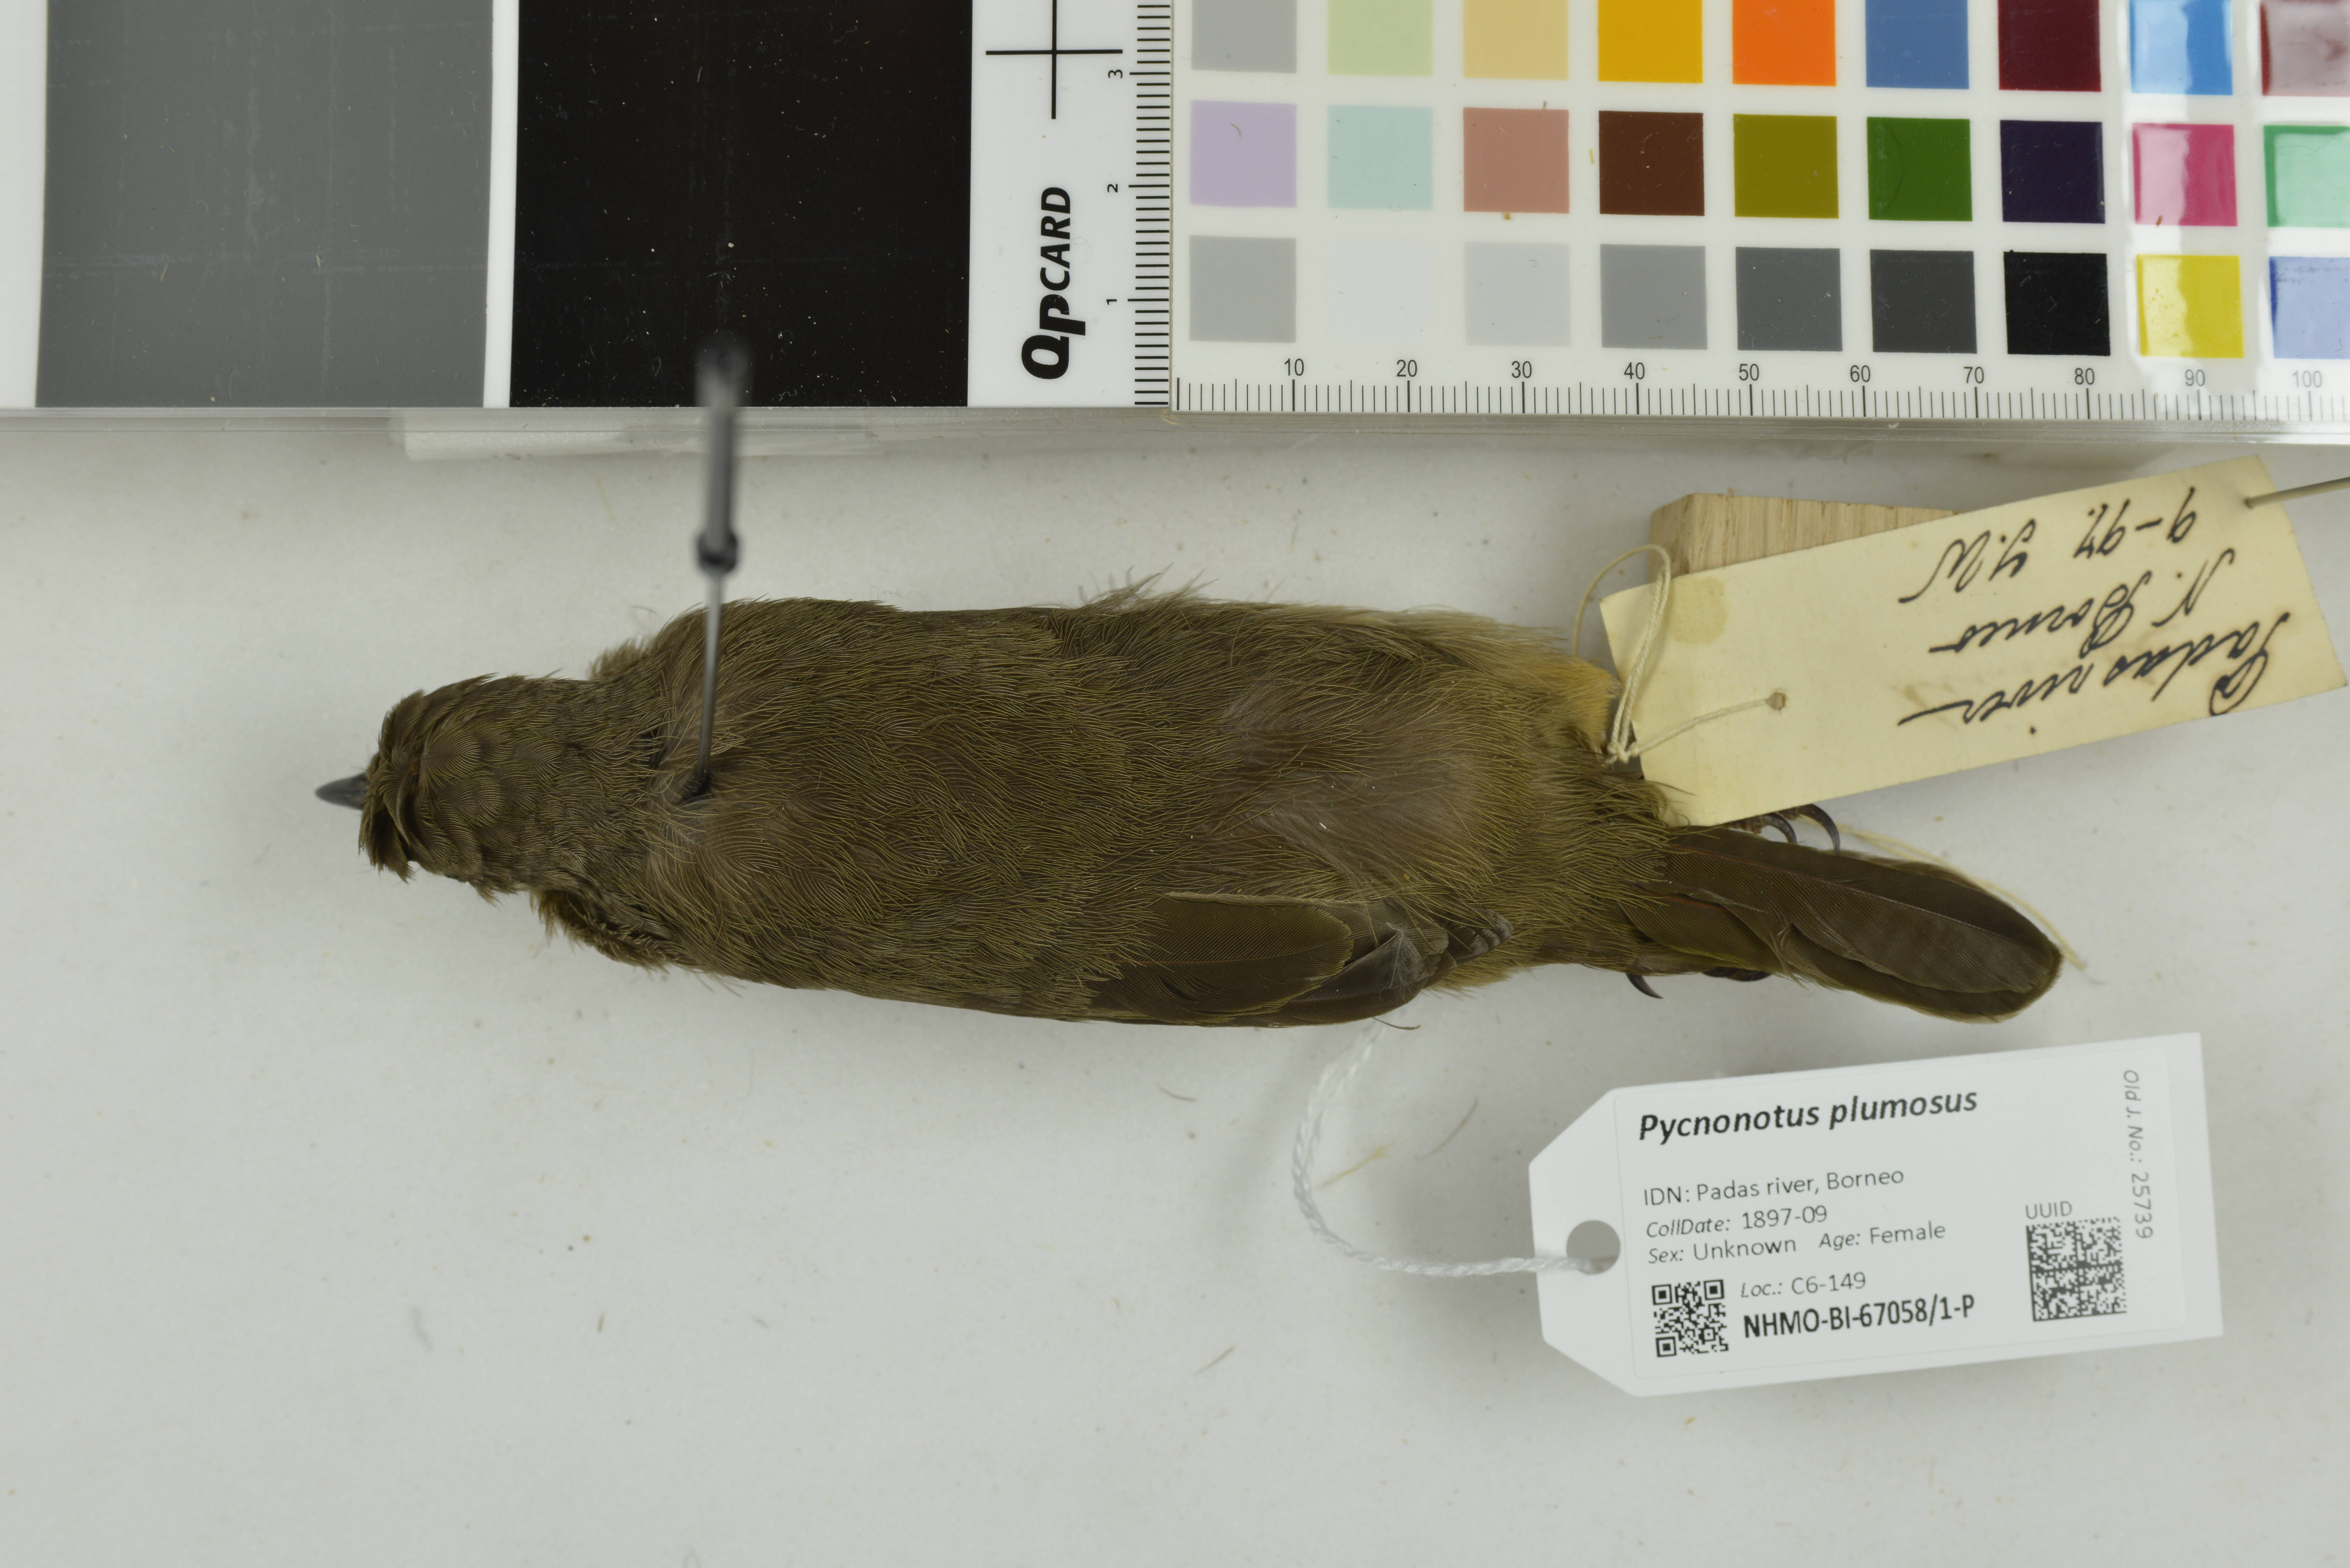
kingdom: Animalia
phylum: Chordata
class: Aves
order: Passeriformes
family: Pycnonotidae
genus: Pycnonotus
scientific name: Pycnonotus plumosus
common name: Olive-winged bulbul
